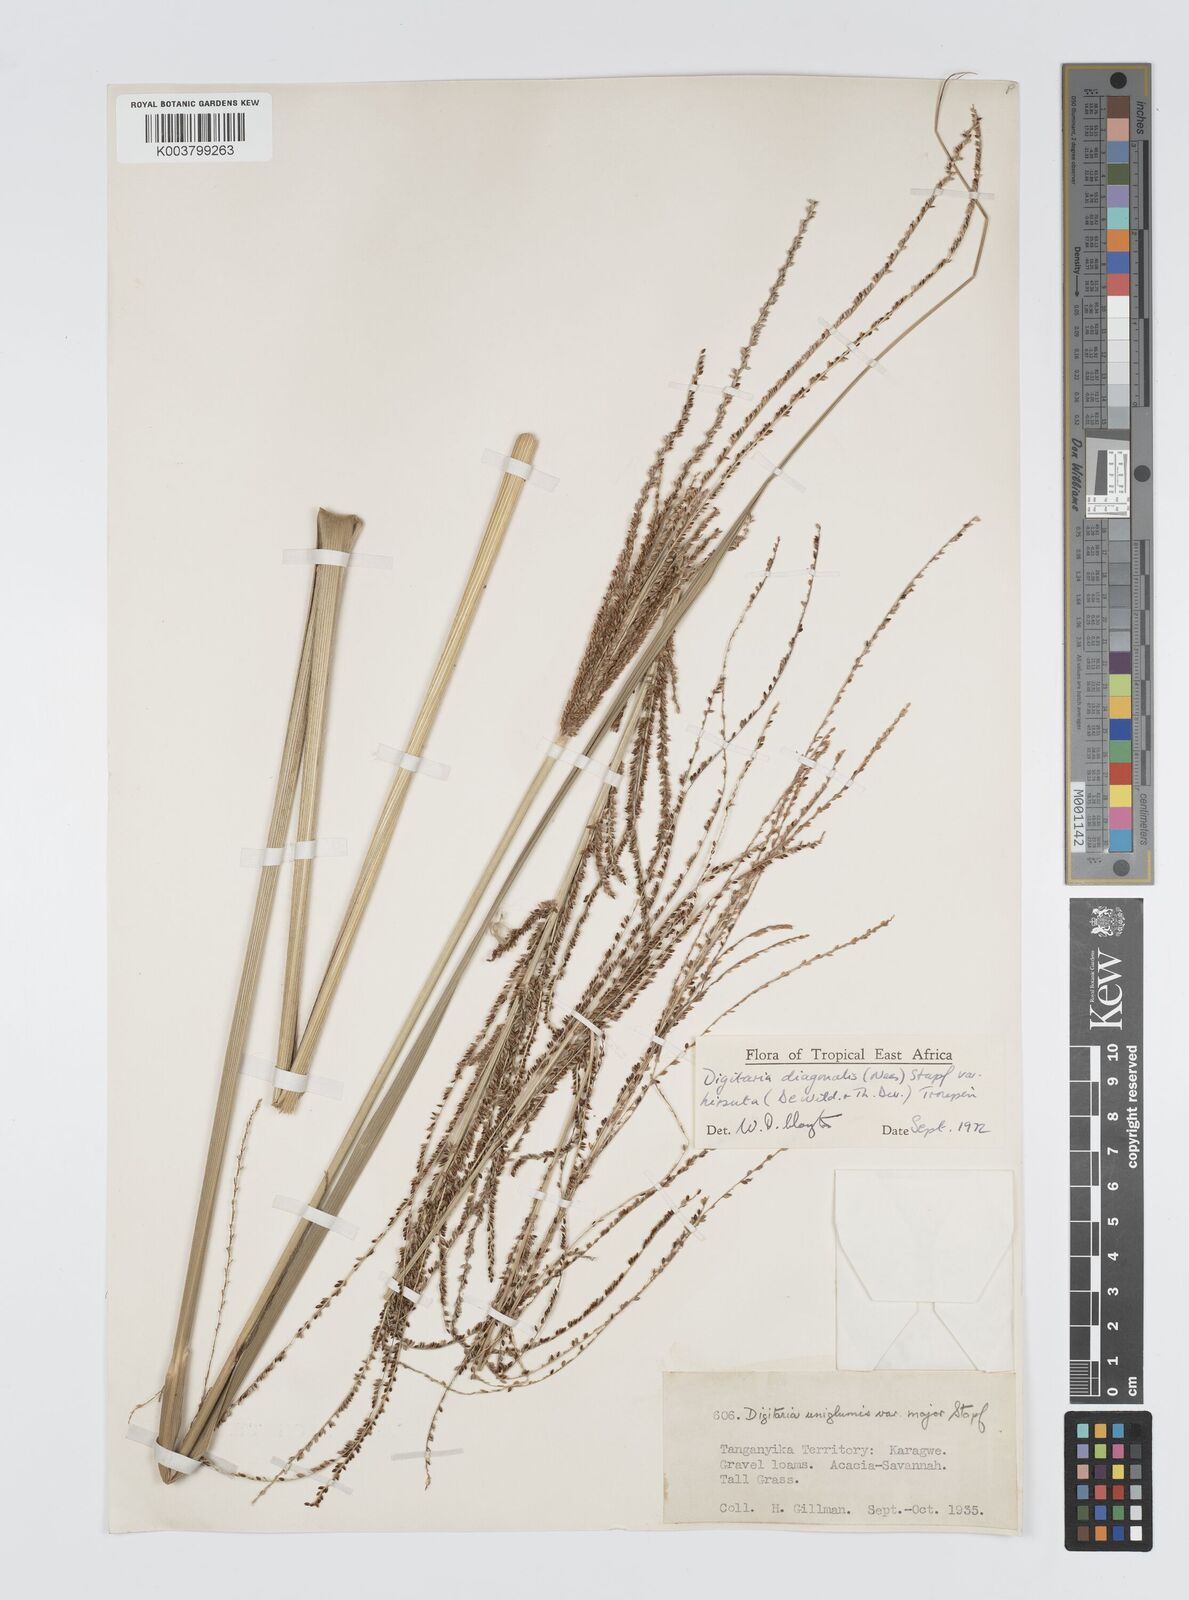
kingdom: Plantae
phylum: Tracheophyta
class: Liliopsida
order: Poales
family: Poaceae
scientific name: Poaceae
